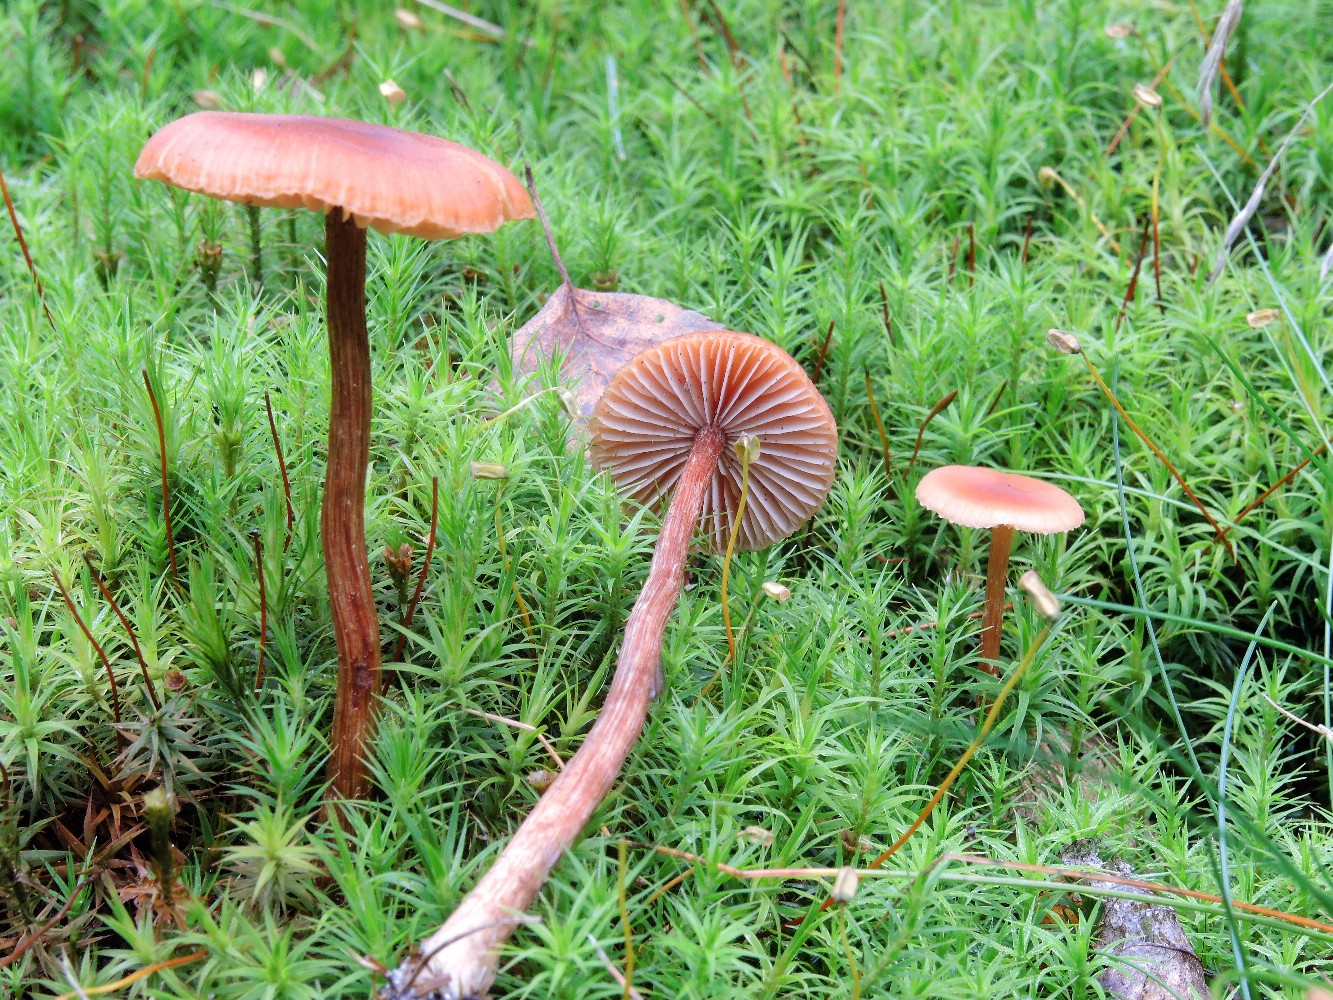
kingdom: Fungi
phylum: Basidiomycota
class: Agaricomycetes
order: Agaricales
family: Hydnangiaceae
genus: Laccaria
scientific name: Laccaria proxima
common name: stor ametysthat
